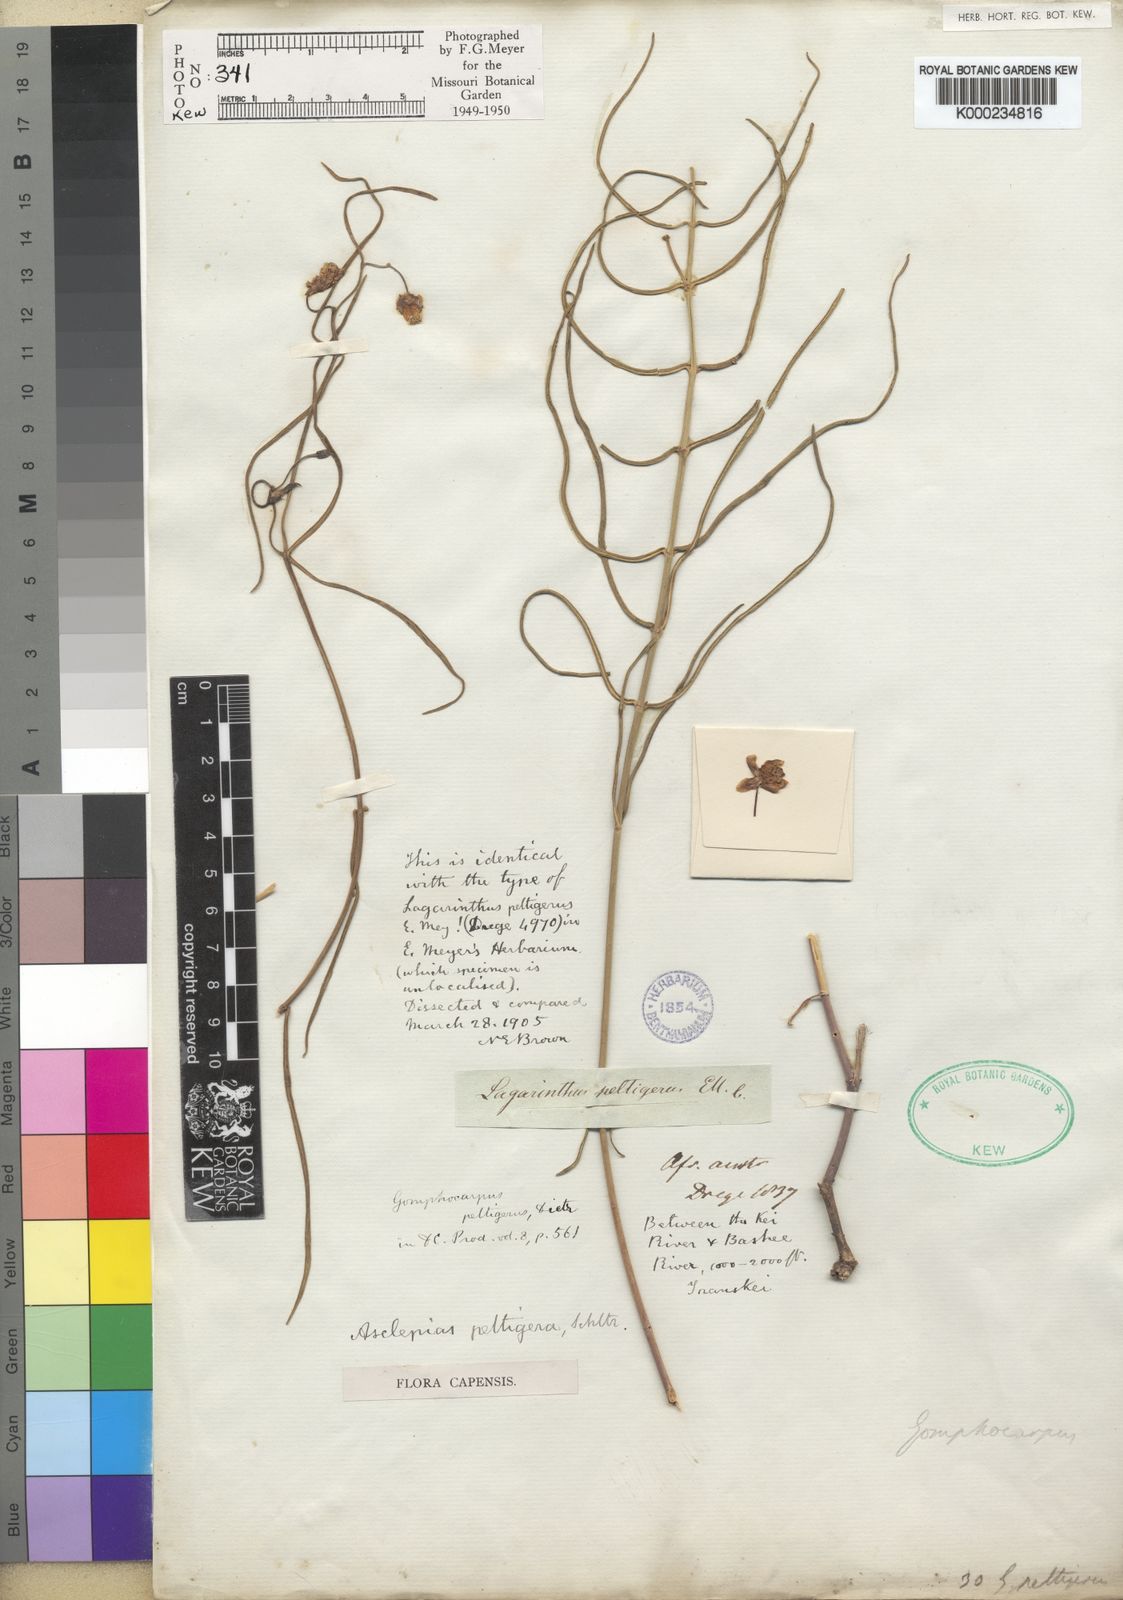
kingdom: Plantae
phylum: Tracheophyta
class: Magnoliopsida
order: Gentianales
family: Apocynaceae
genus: Asclepias
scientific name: Asclepias peltigera
